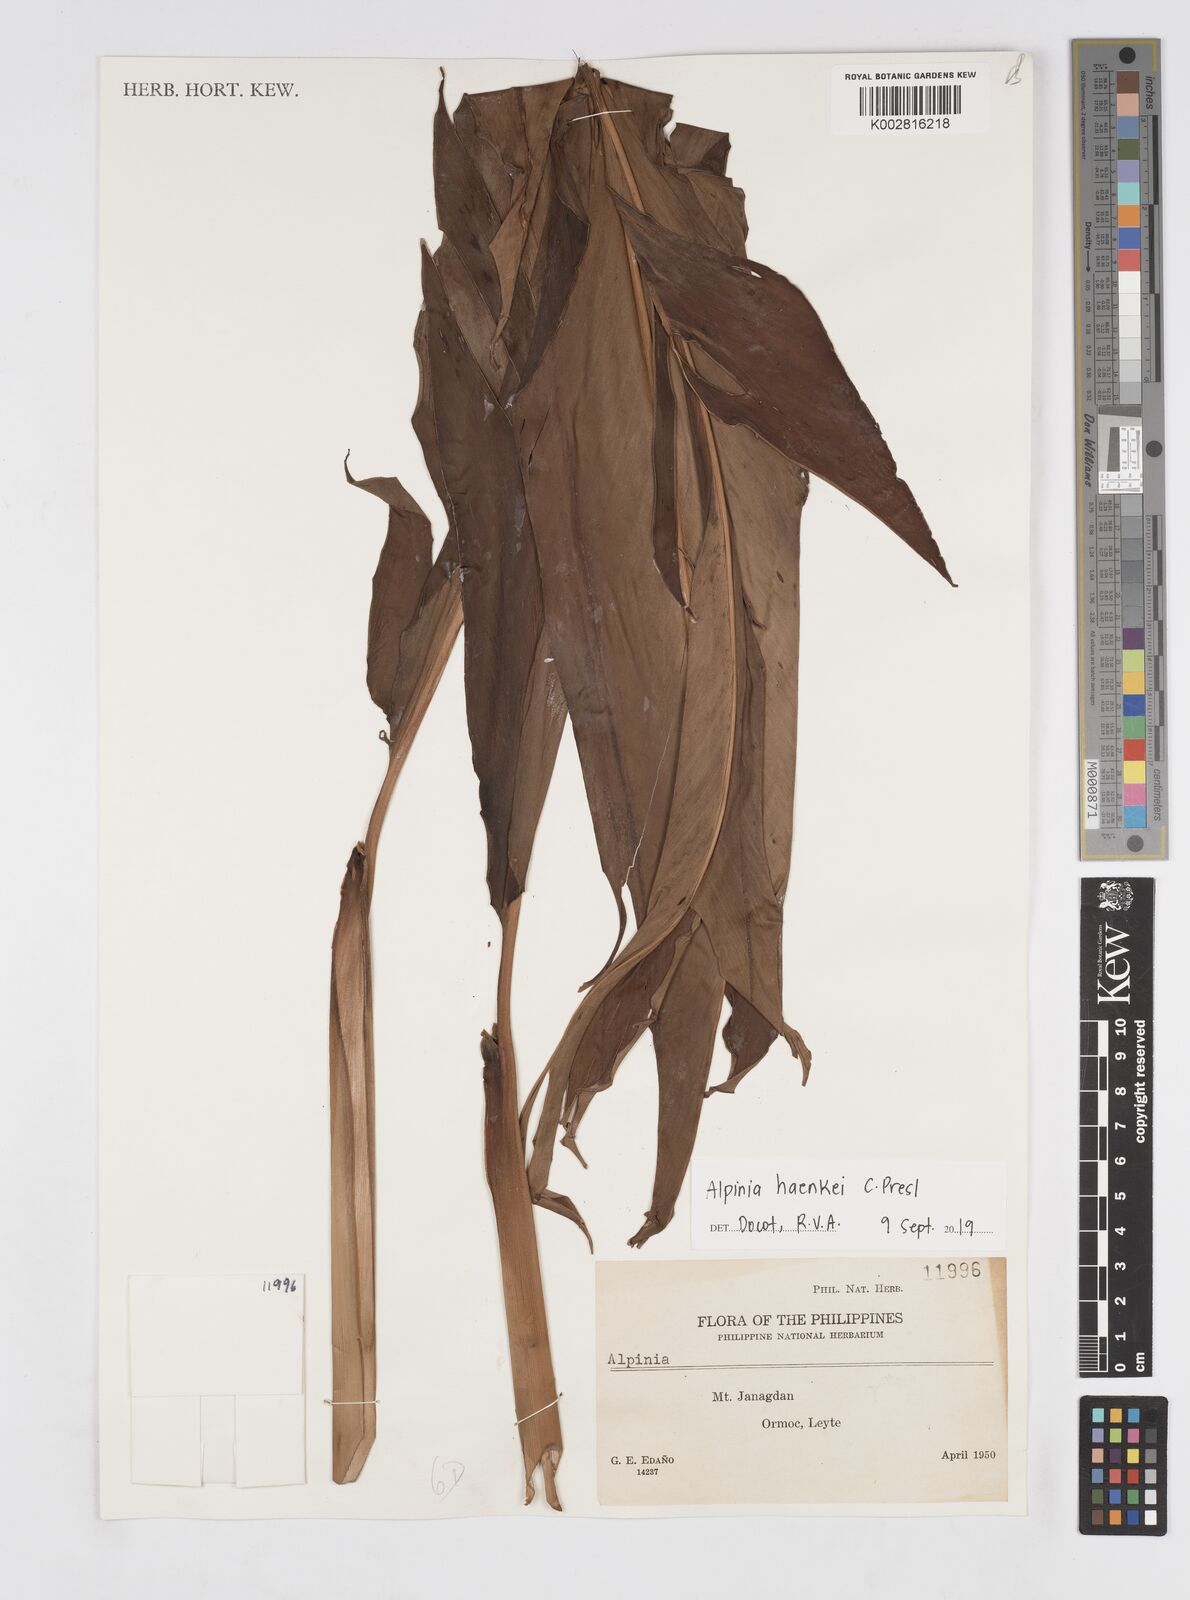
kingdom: Plantae
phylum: Tracheophyta
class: Liliopsida
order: Zingiberales
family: Zingiberaceae
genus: Alpinia
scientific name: Alpinia haenkei
